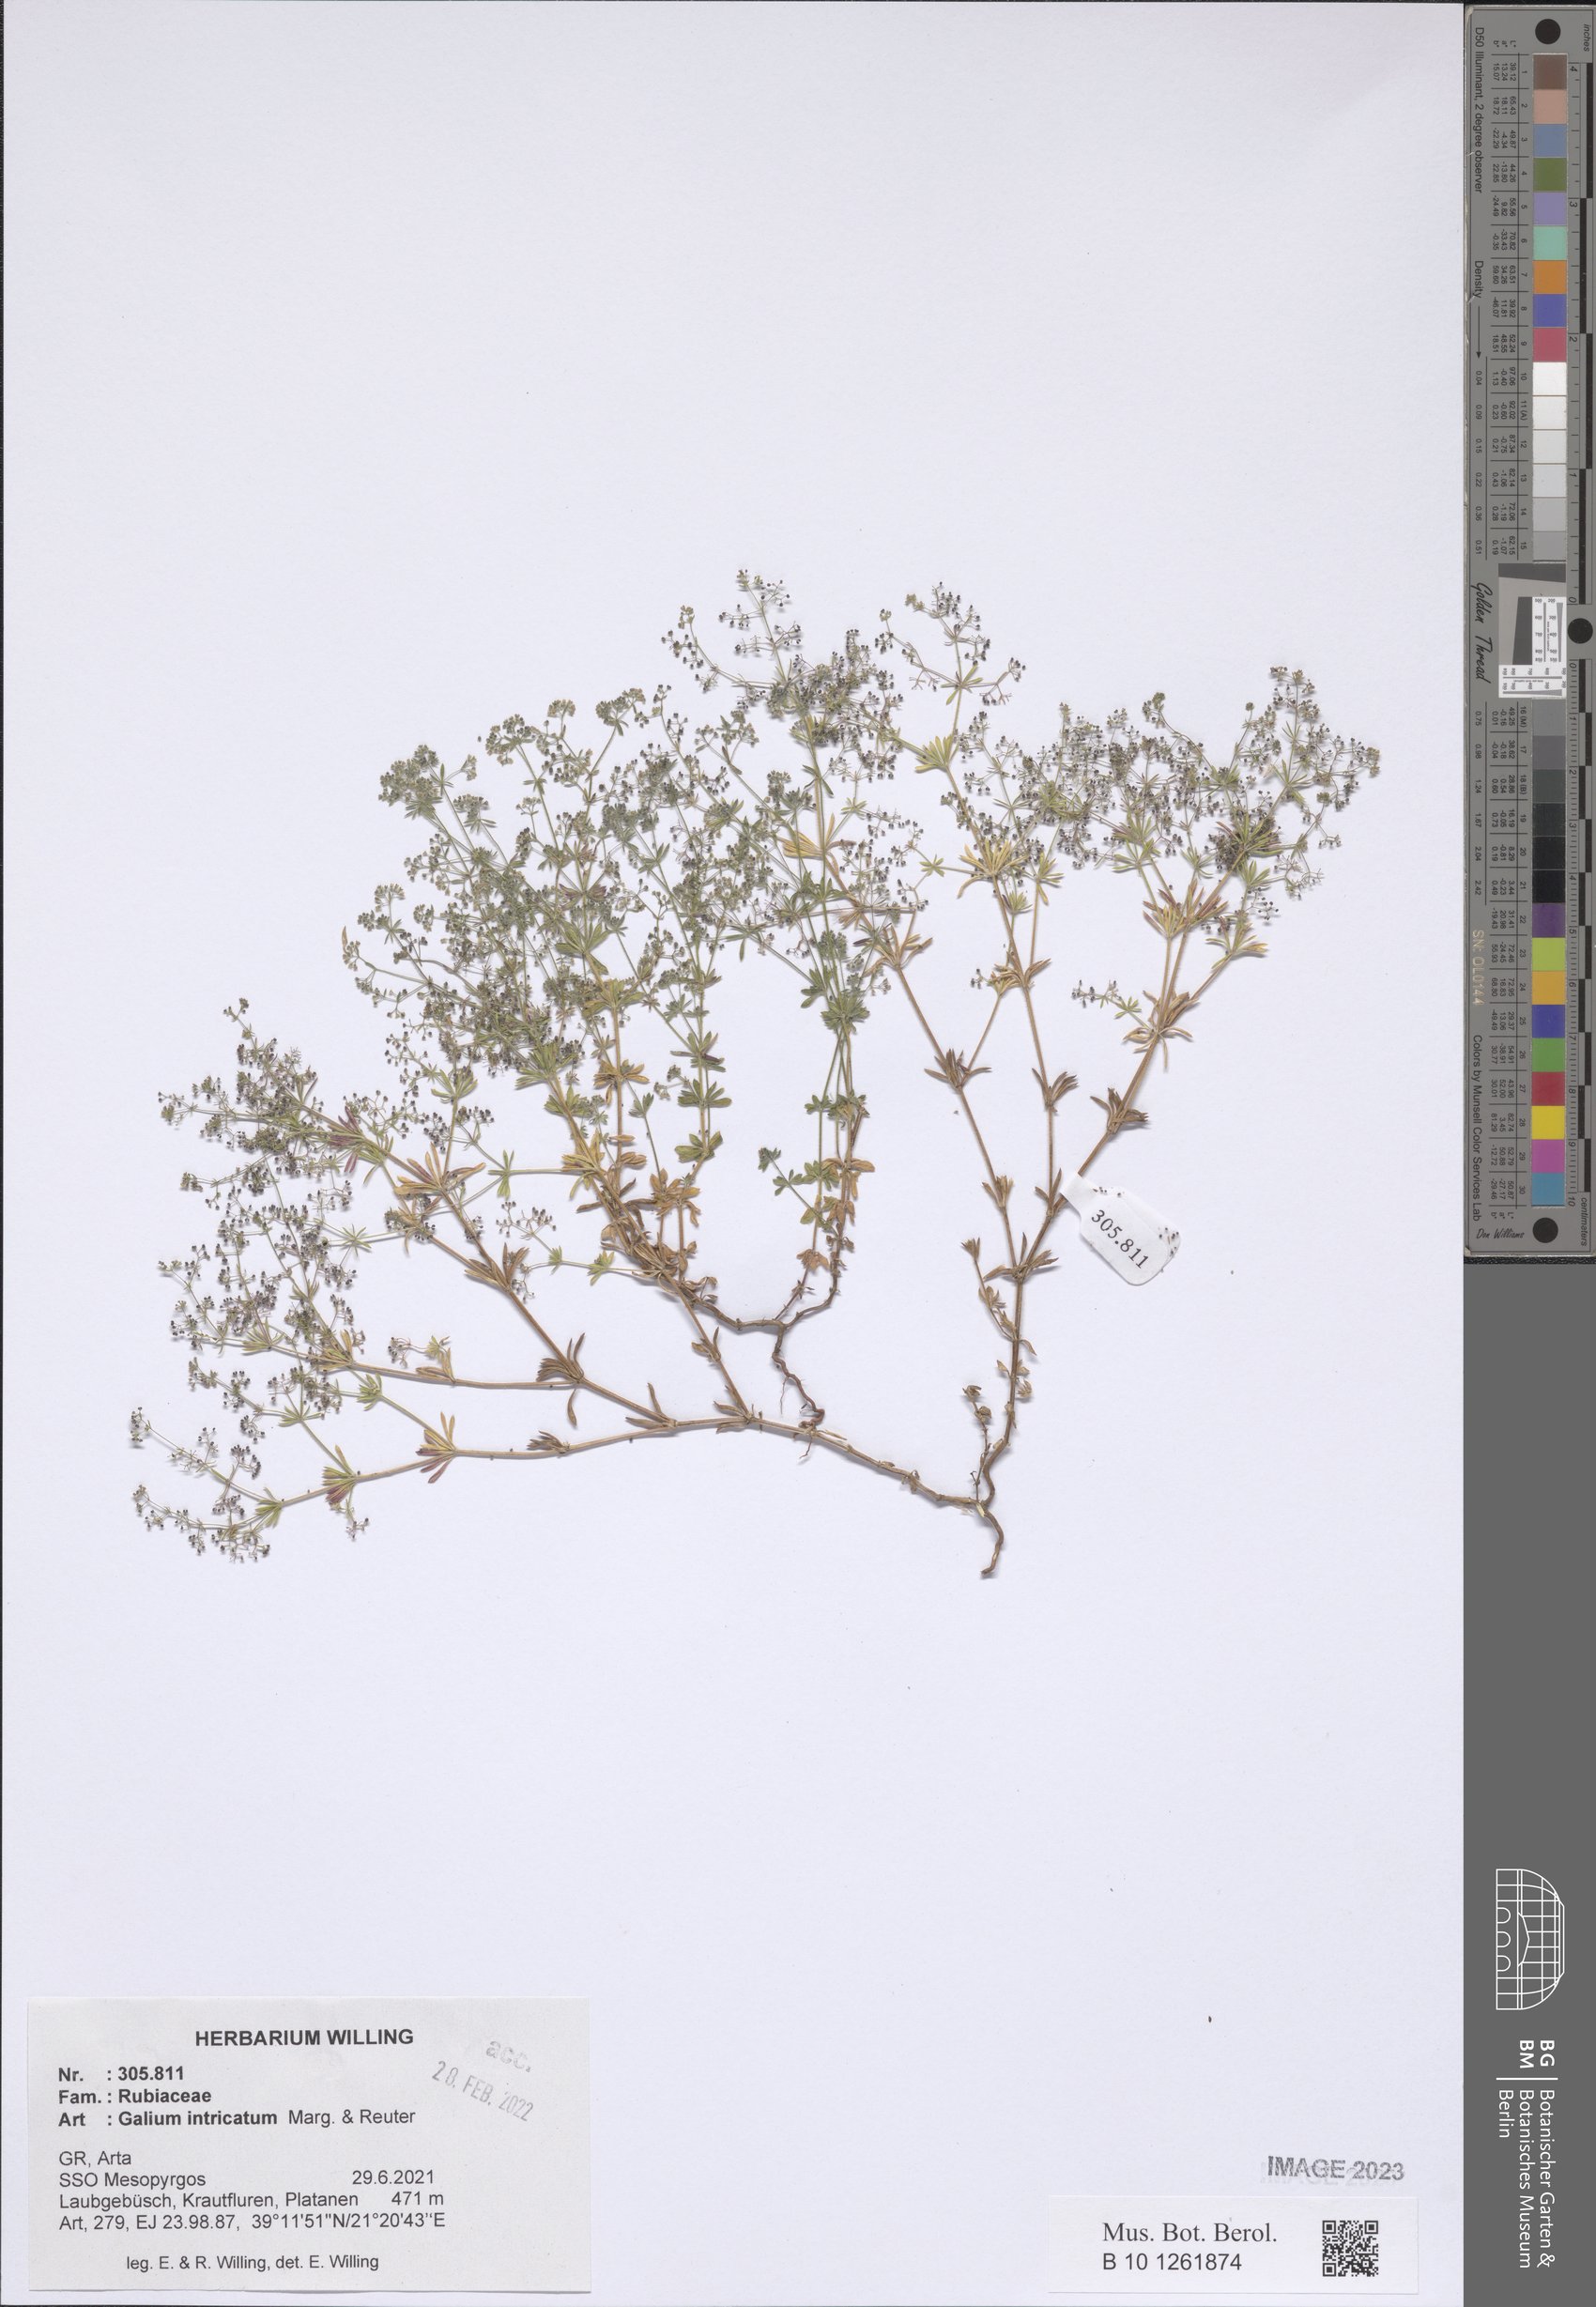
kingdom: Plantae
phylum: Tracheophyta
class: Magnoliopsida
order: Gentianales
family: Rubiaceae
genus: Galium
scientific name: Galium intricatum
